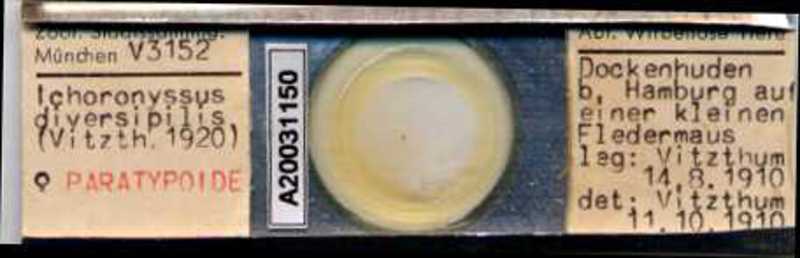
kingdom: Animalia
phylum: Arthropoda
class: Arachnida
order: Mesostigmata
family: Macronyssidae
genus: Macronyssus
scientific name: Macronyssus diversipilis
